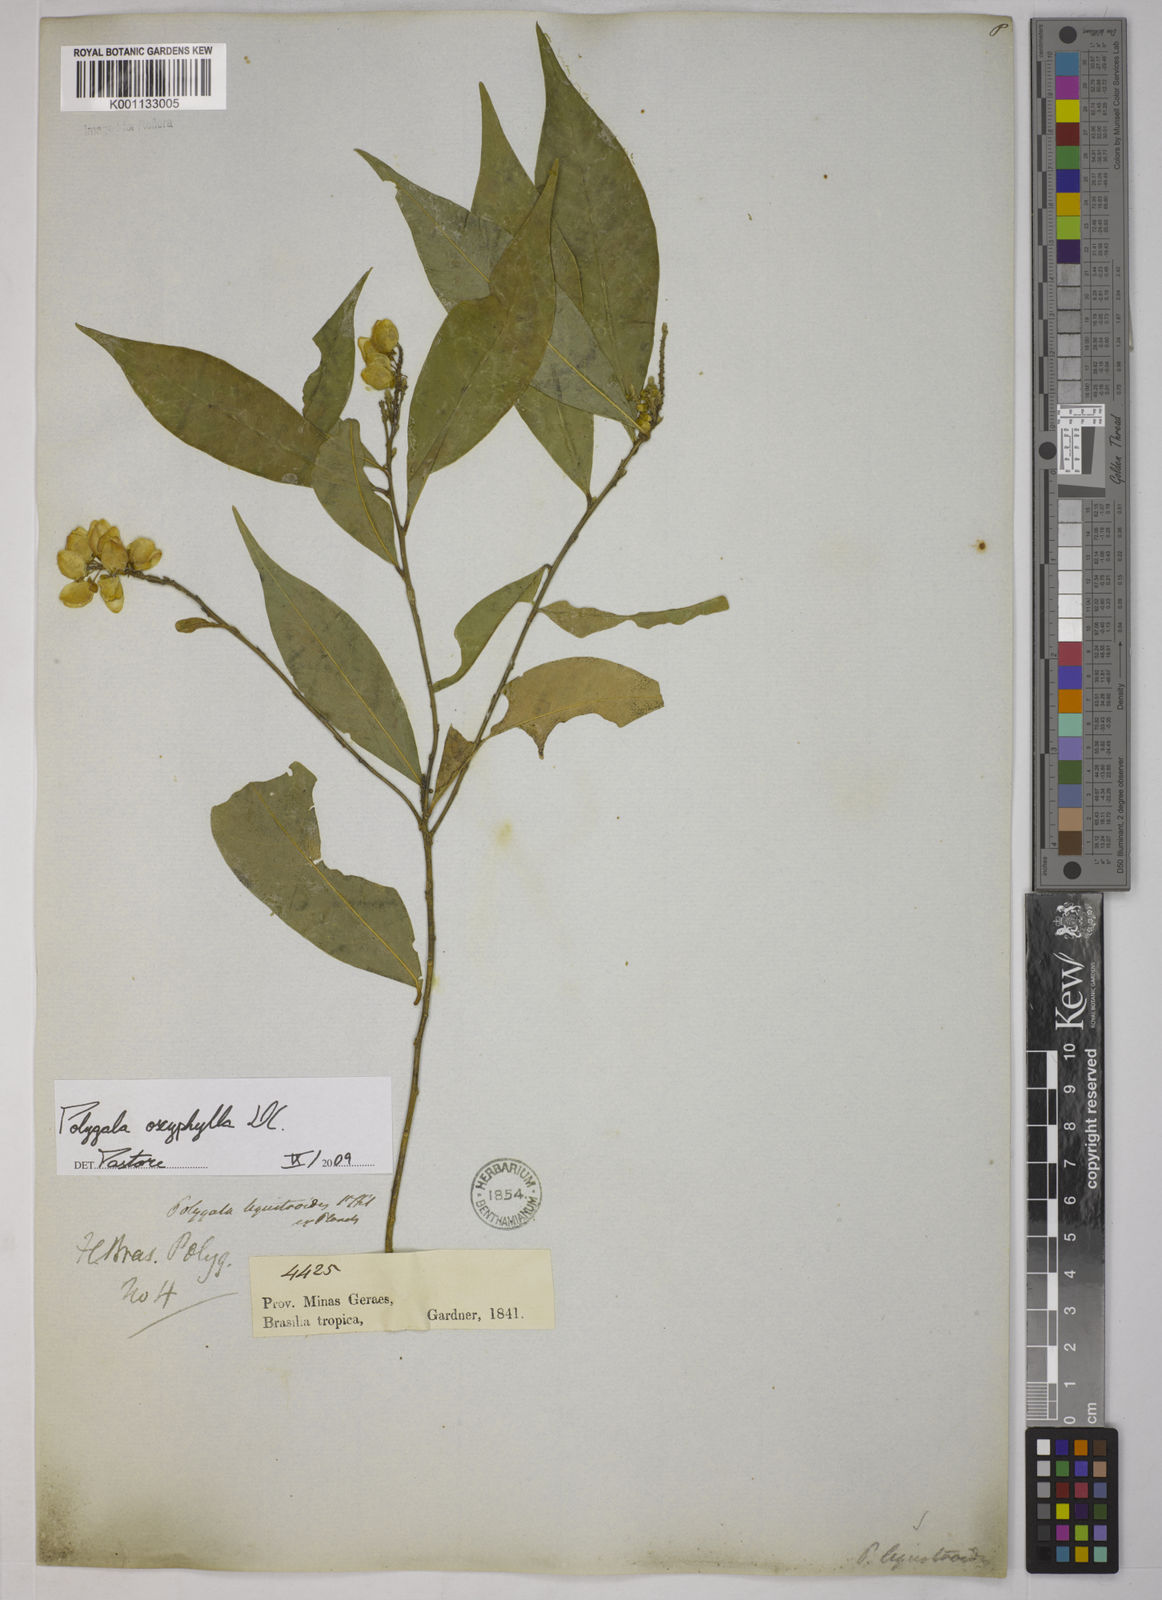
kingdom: Plantae
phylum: Tracheophyta
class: Magnoliopsida
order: Fabales
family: Polygalaceae
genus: Caamembeca
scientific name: Caamembeca oxyphylla
